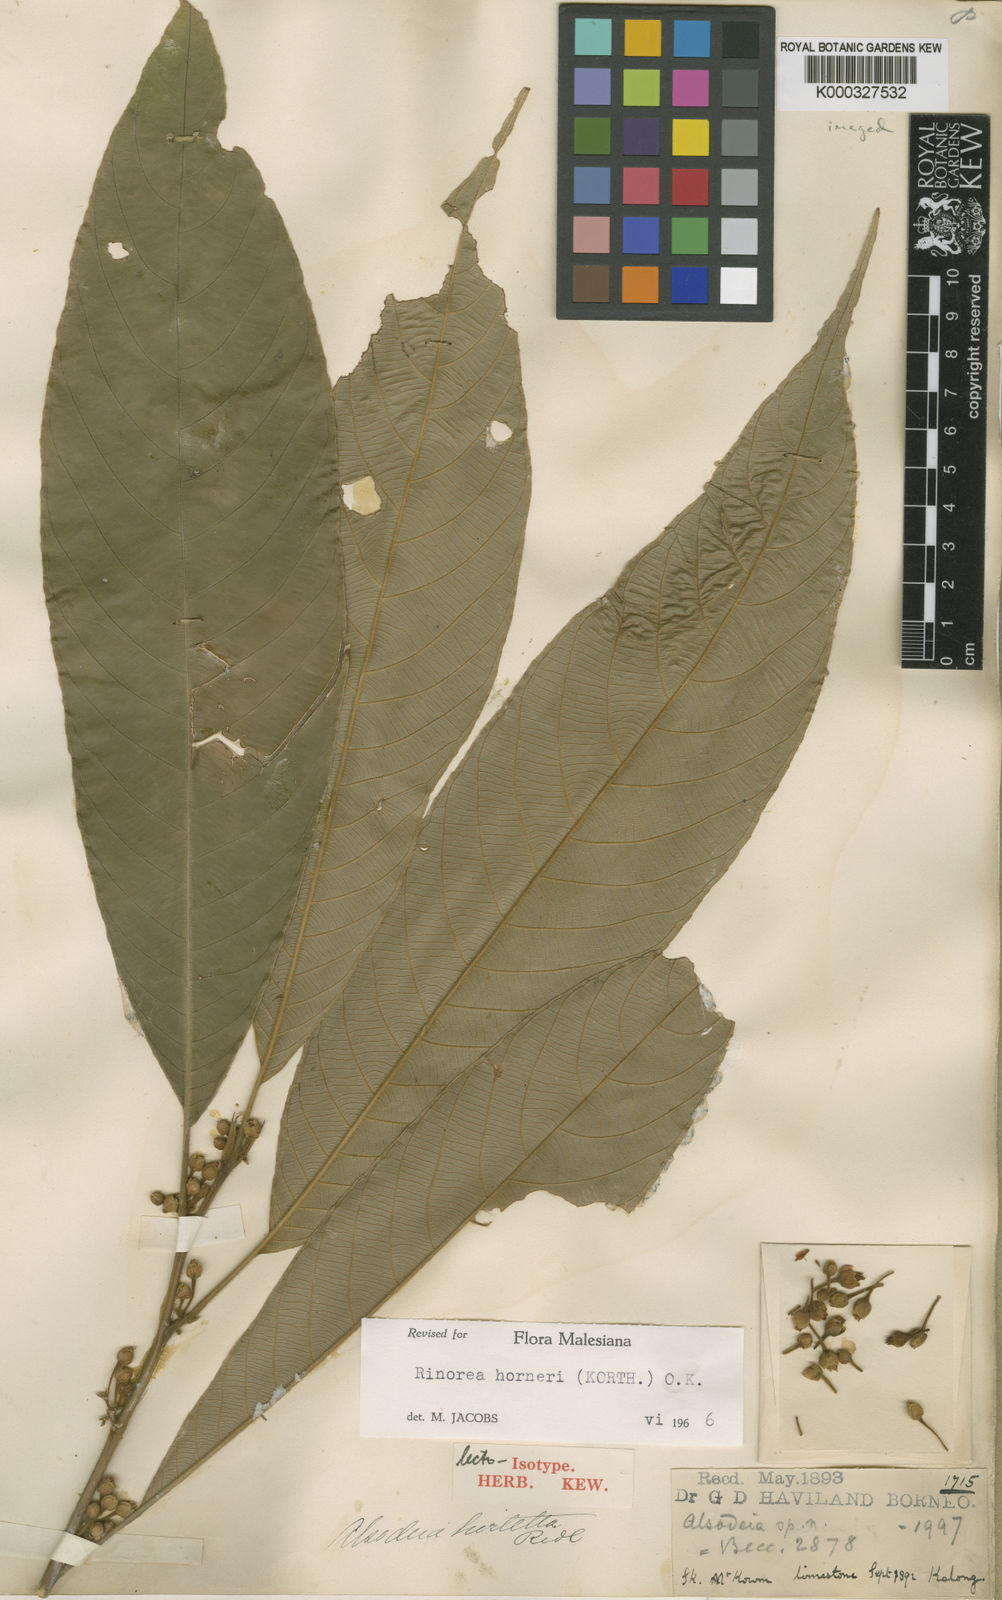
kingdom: Plantae
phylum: Tracheophyta
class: Magnoliopsida
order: Malpighiales
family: Violaceae
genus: Rinorea
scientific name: Rinorea horneri
